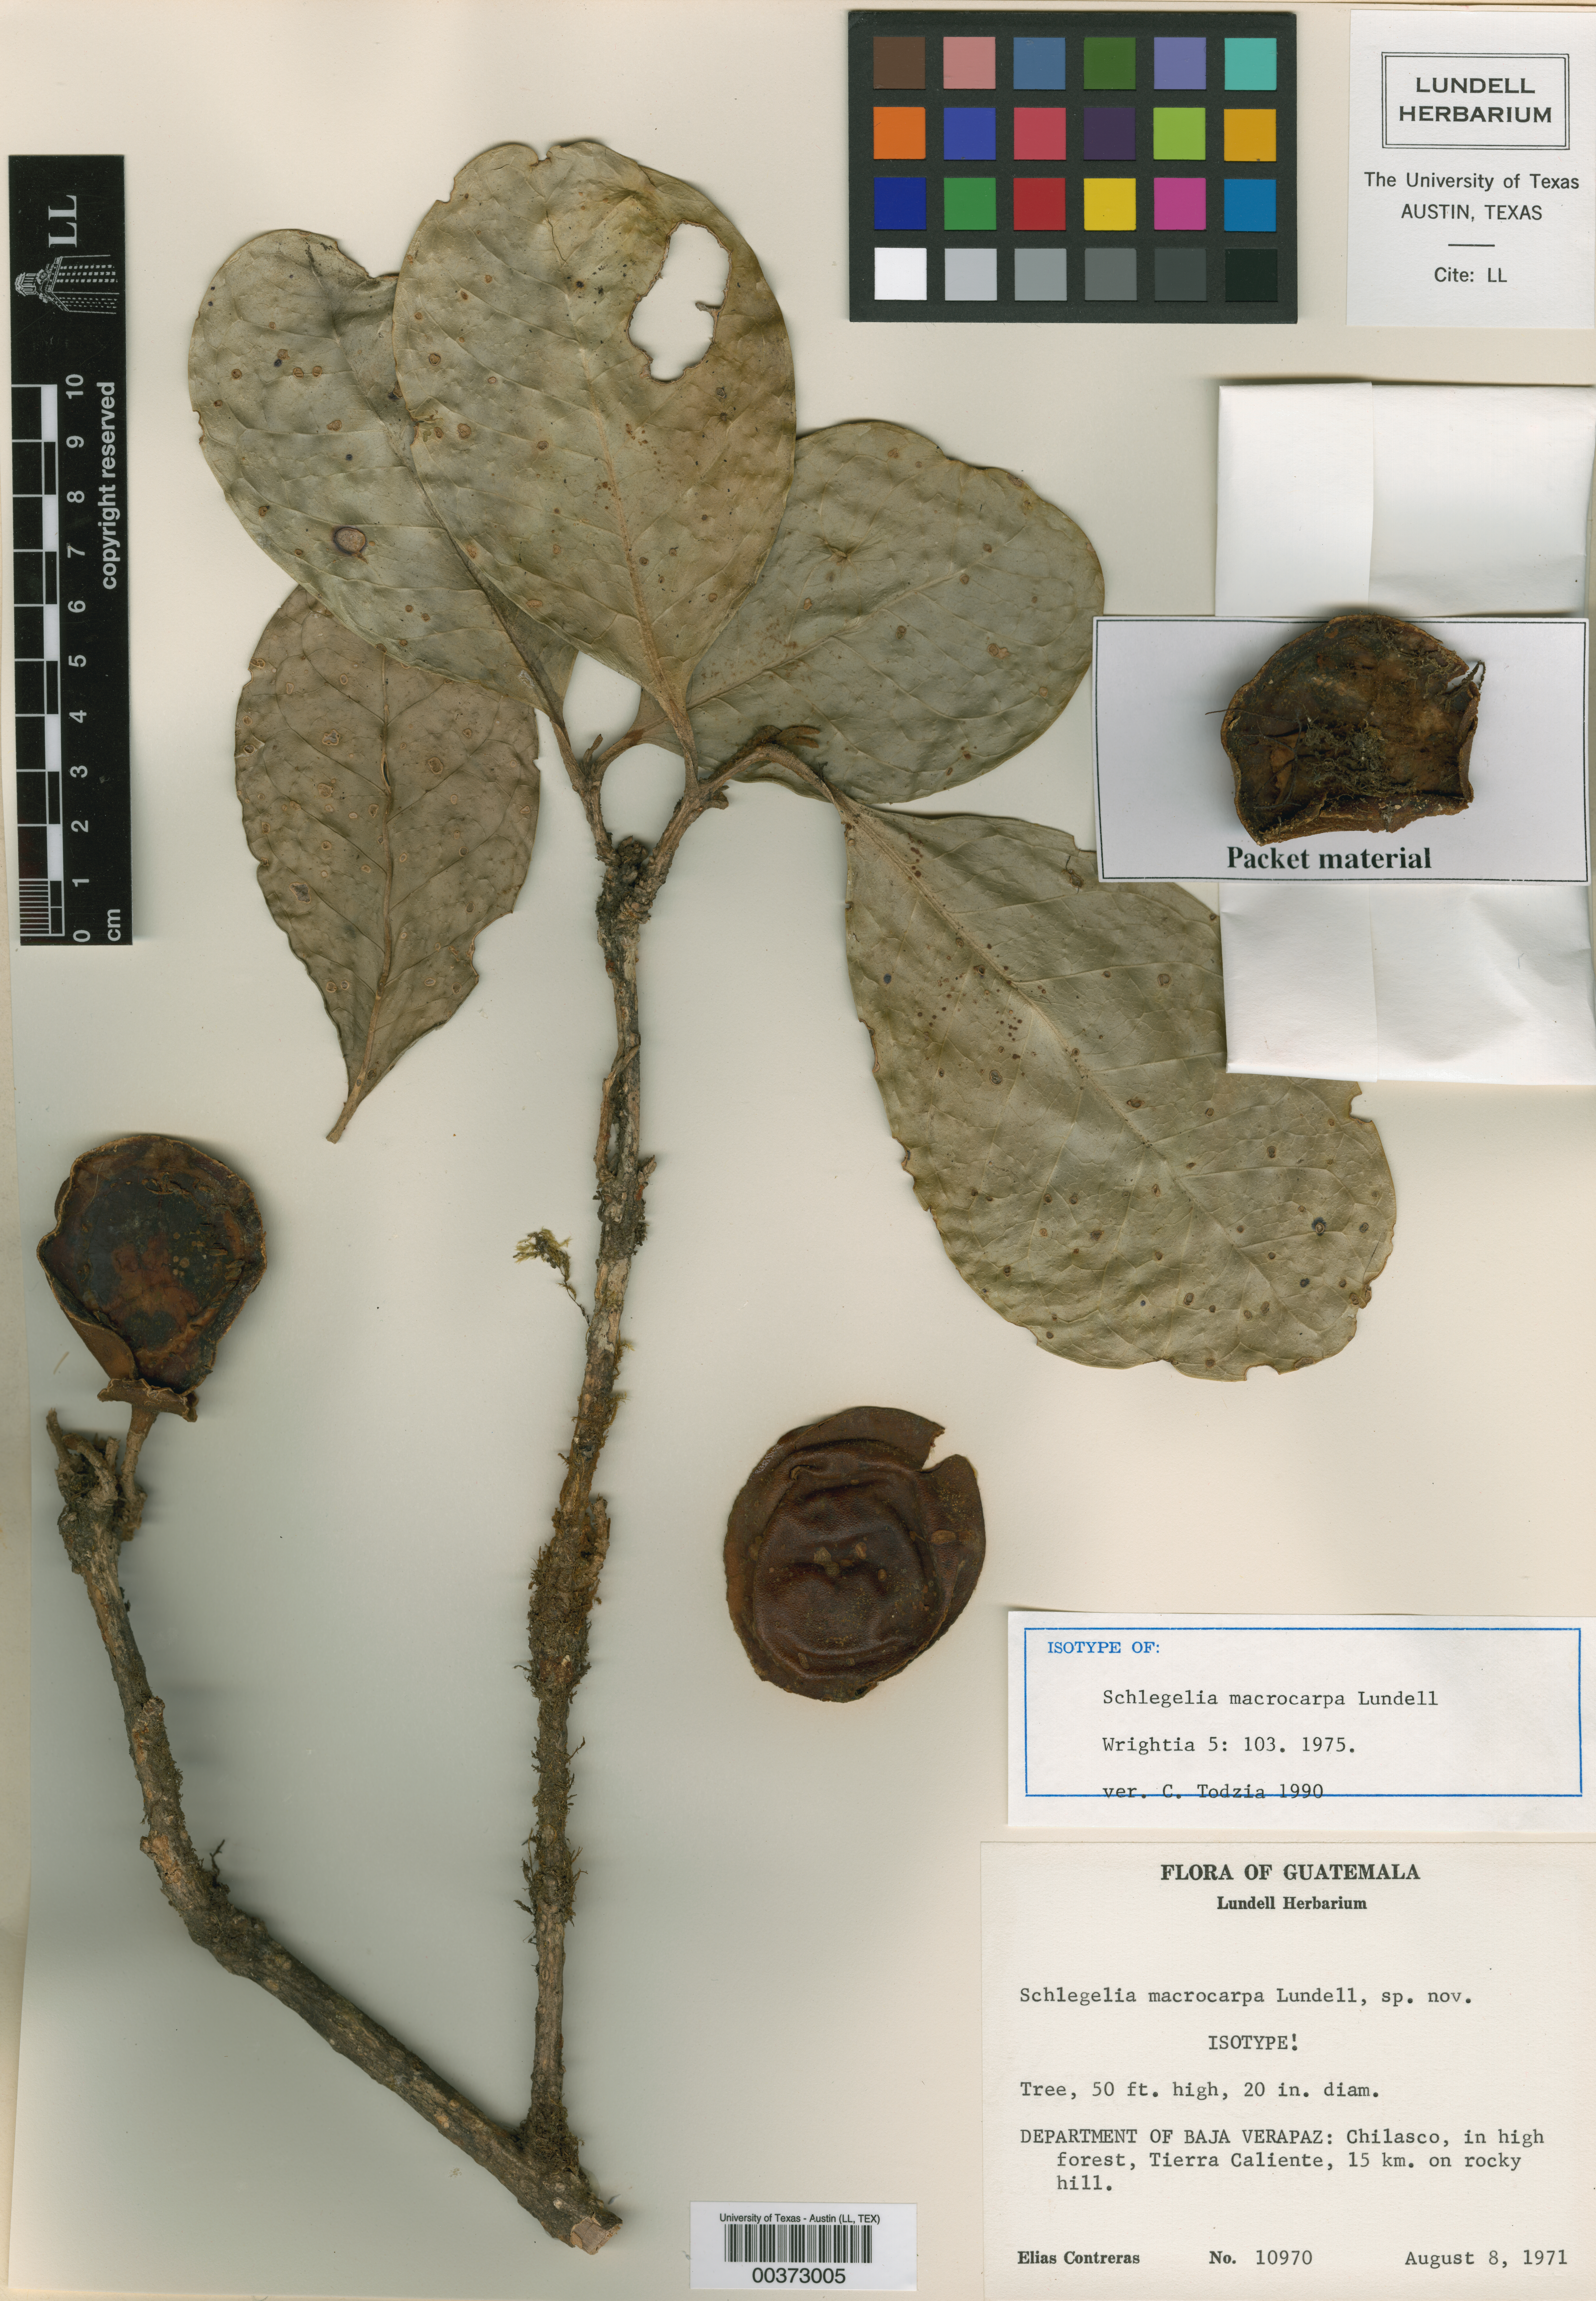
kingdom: Plantae
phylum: Tracheophyta
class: Magnoliopsida
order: Lamiales
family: Schlegeliaceae
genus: Schlegelia
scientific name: Schlegelia macrocarpa
